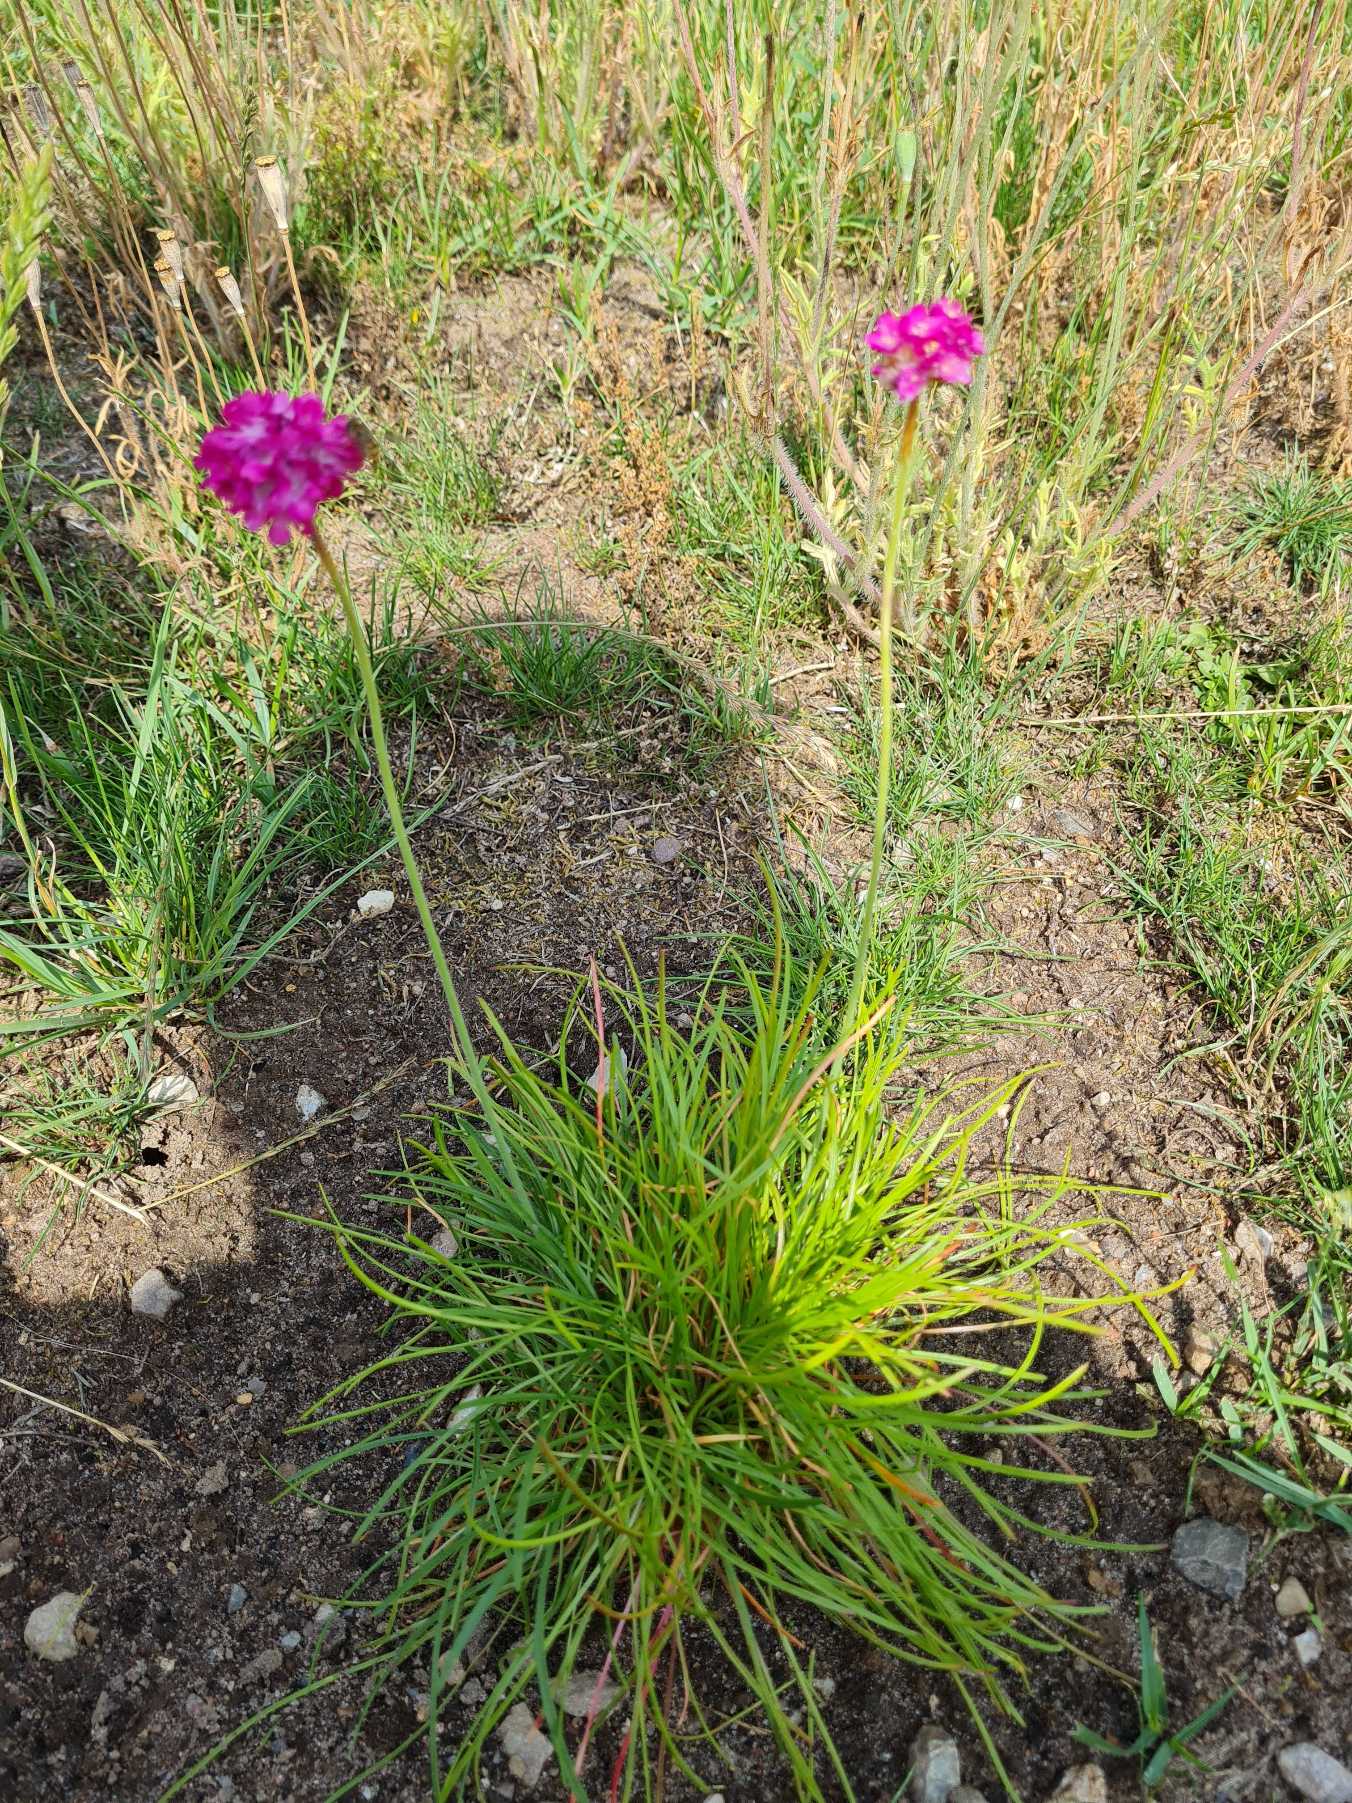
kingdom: Plantae
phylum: Tracheophyta
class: Magnoliopsida
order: Caryophyllales
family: Plumbaginaceae
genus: Armeria
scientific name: Armeria maritima
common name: Engelskgræs
